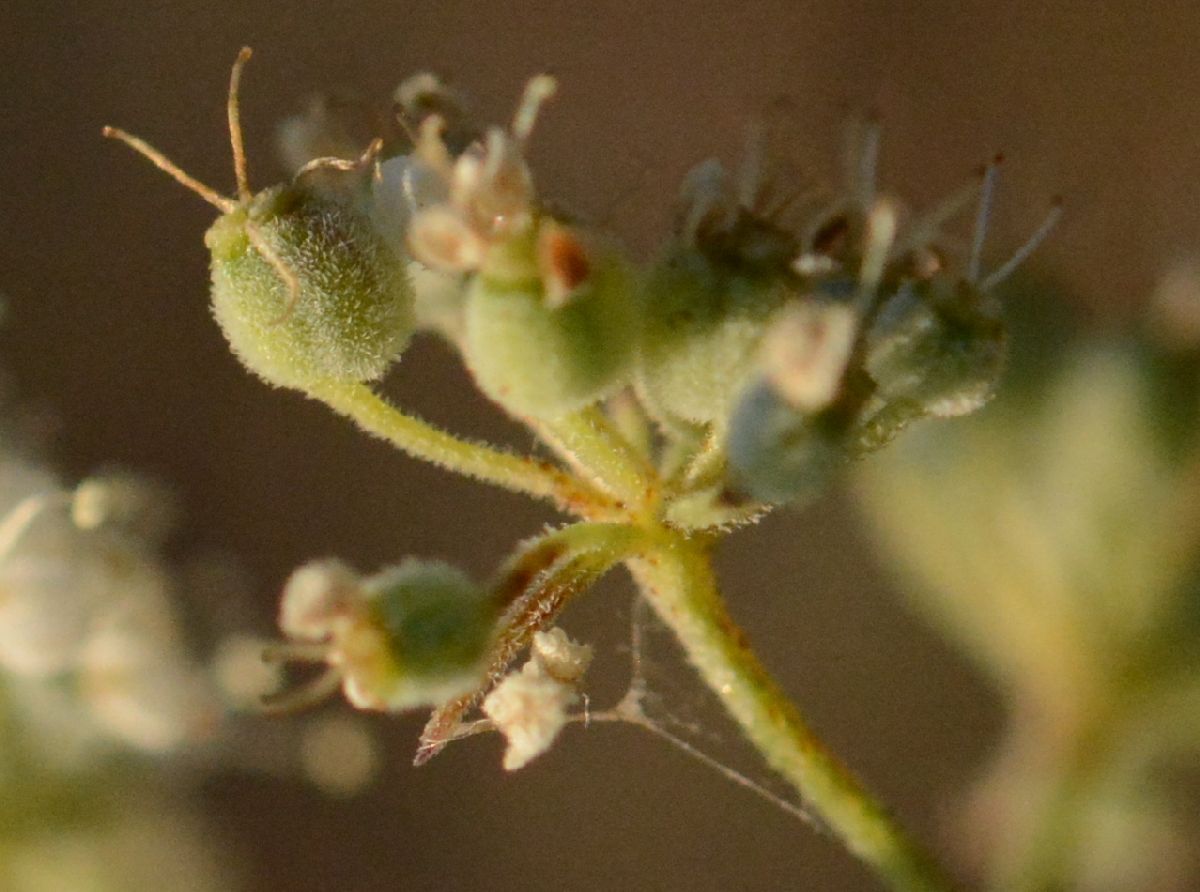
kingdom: Plantae
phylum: Tracheophyta
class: Magnoliopsida
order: Apiales
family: Apiaceae
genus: Seseli
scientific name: Seseli annuum
